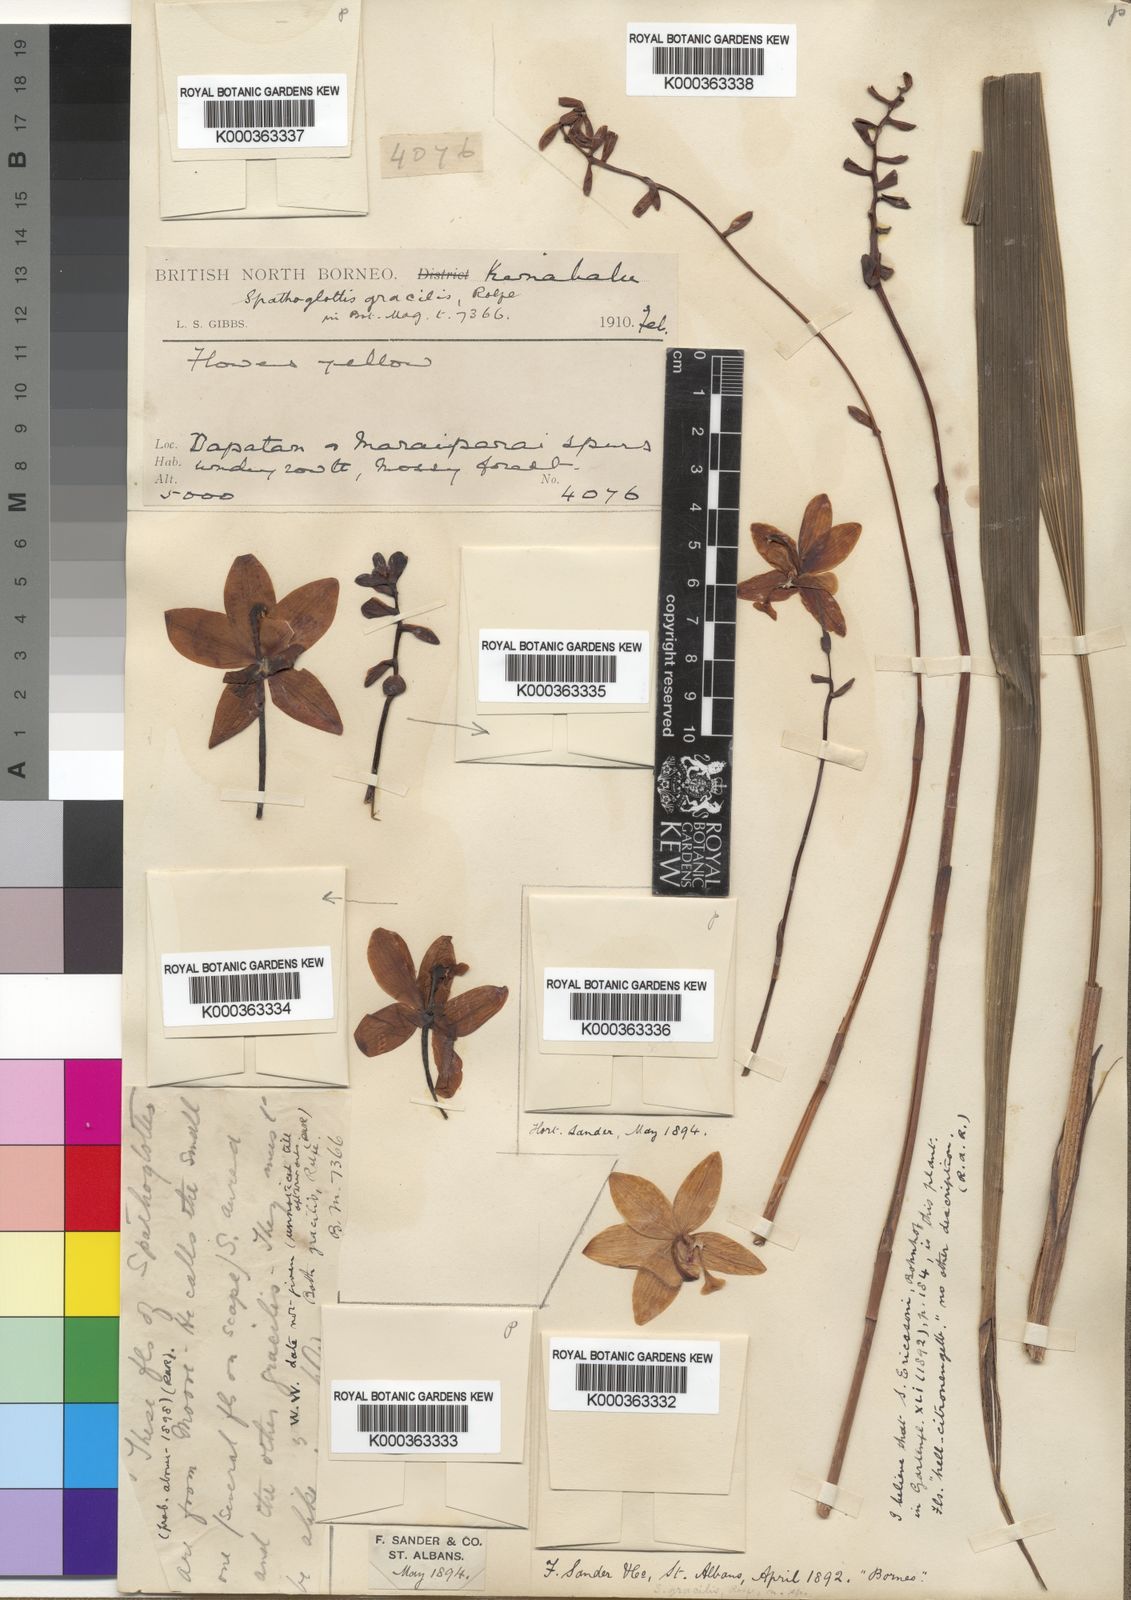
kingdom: Plantae
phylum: Tracheophyta
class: Liliopsida
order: Asparagales
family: Orchidaceae
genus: Spathoglottis
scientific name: Spathoglottis gracilis
